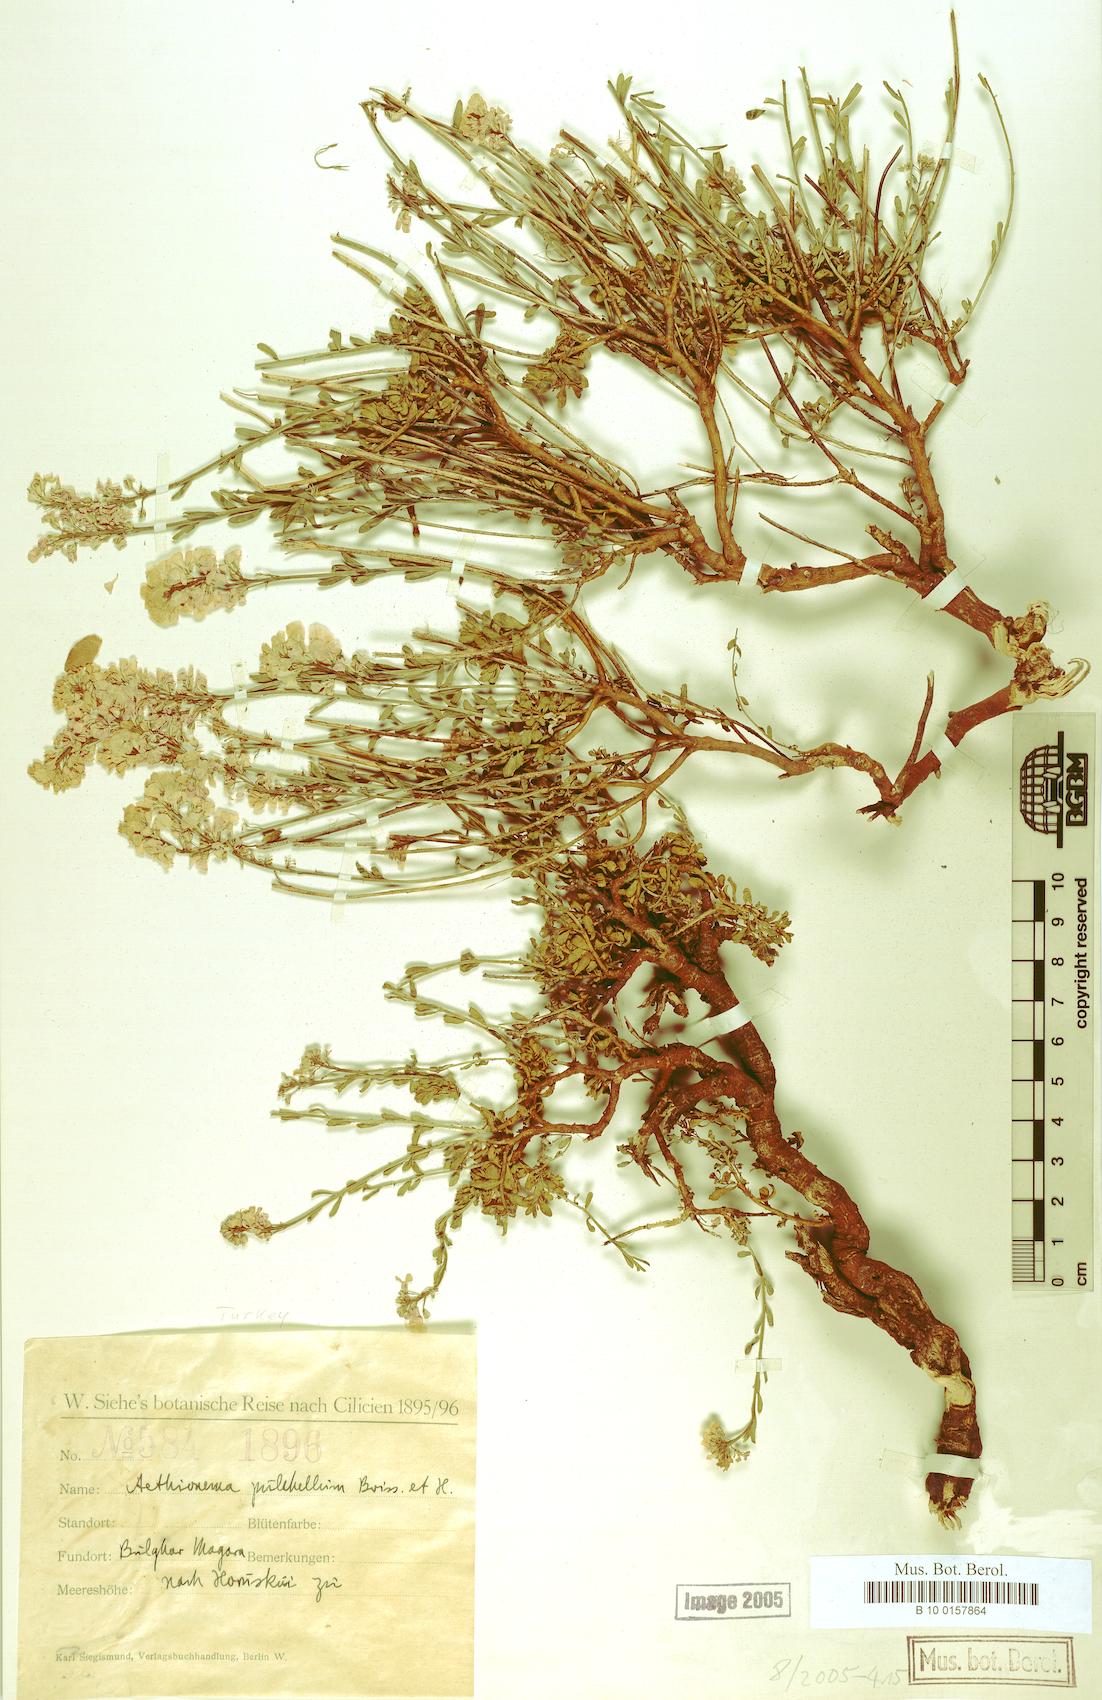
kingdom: Plantae
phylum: Tracheophyta
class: Magnoliopsida
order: Brassicales
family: Brassicaceae
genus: Aethionema
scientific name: Aethionema grandiflorum
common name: Persian stonecress
